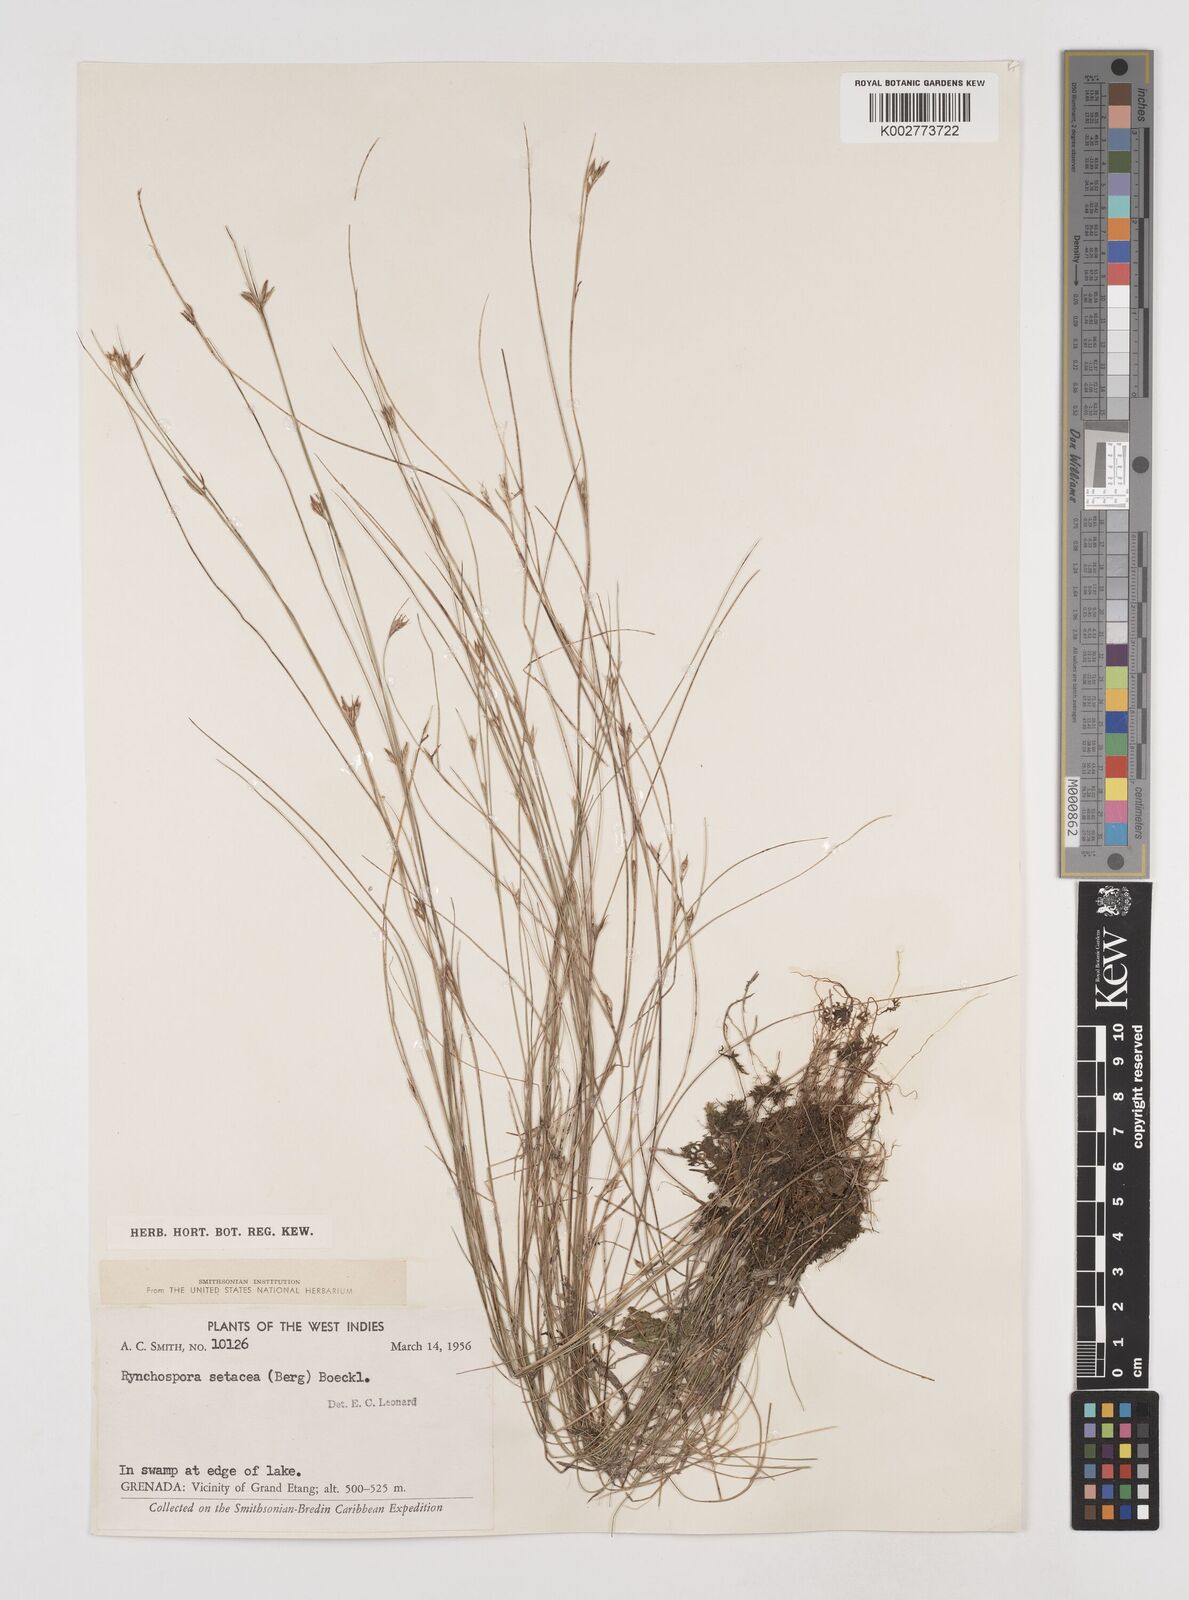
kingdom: Plantae
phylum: Tracheophyta
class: Liliopsida
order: Poales
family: Cyperaceae
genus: Rhynchospora
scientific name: Rhynchospora tenuis
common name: Quill beaksedge
